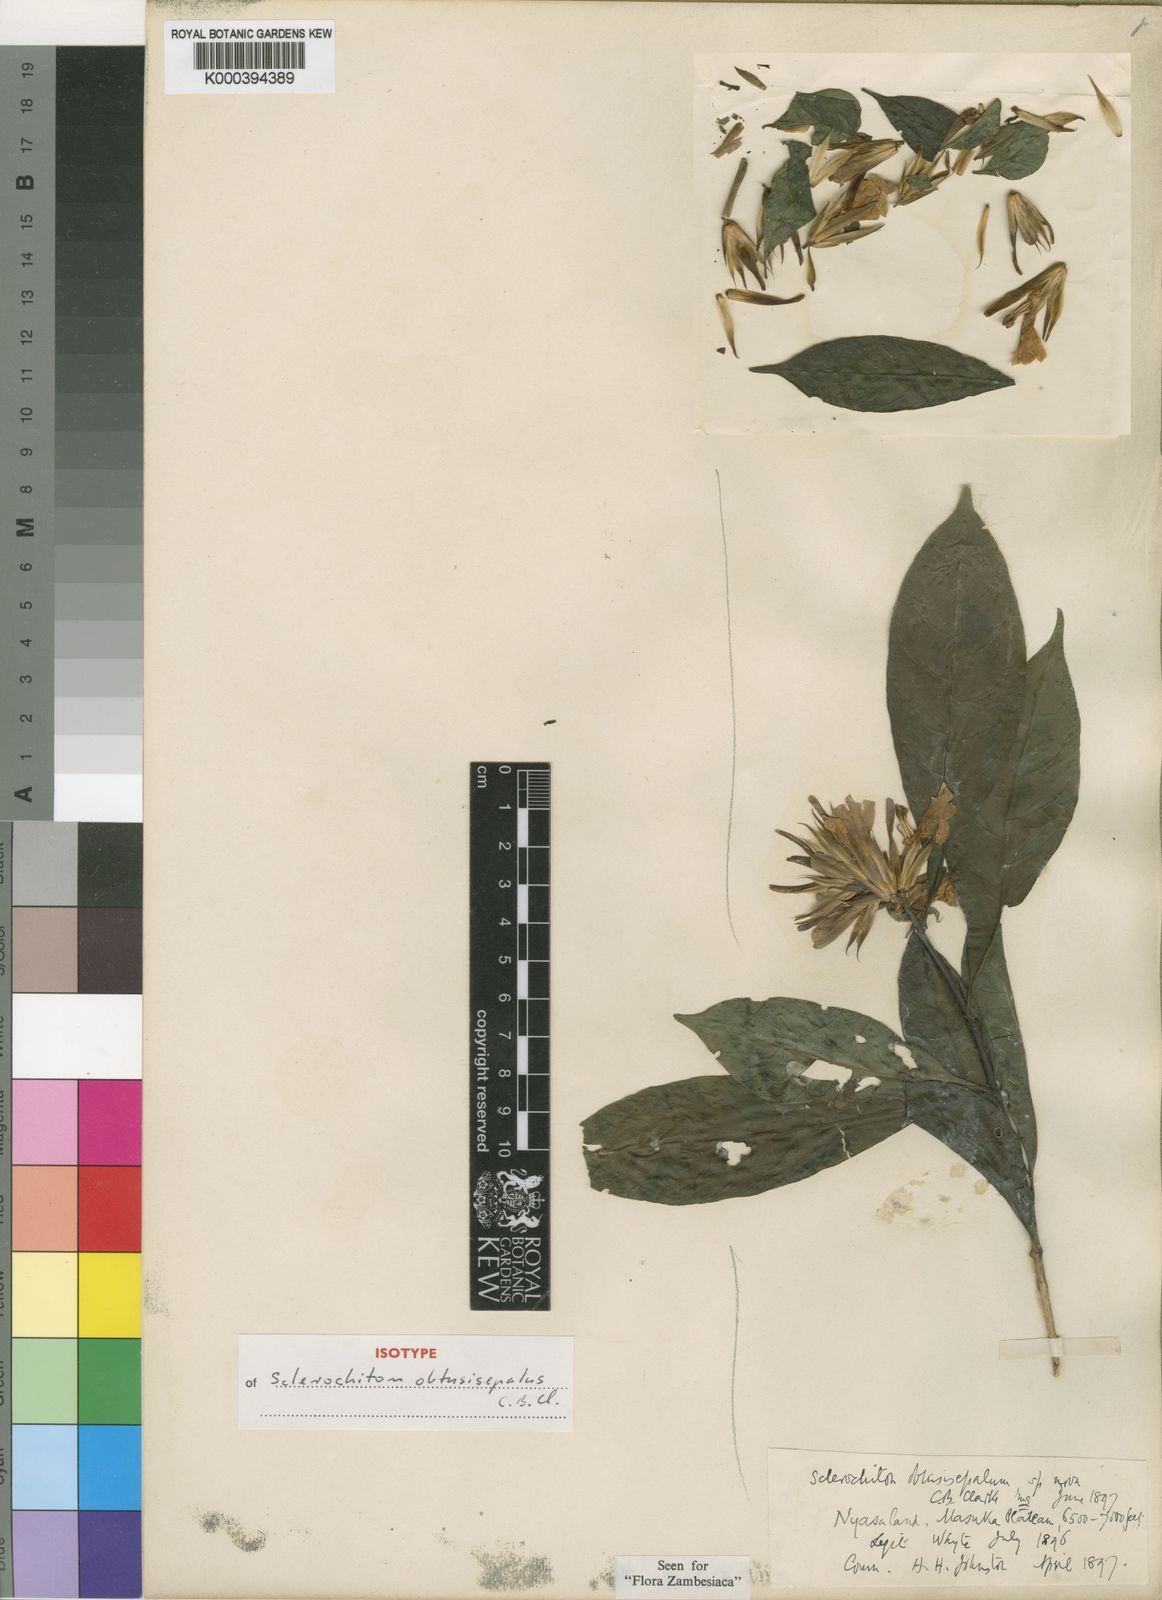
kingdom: Plantae
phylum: Tracheophyta
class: Magnoliopsida
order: Lamiales
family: Acanthaceae
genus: Sclerochiton
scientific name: Sclerochiton obtusisepalus
